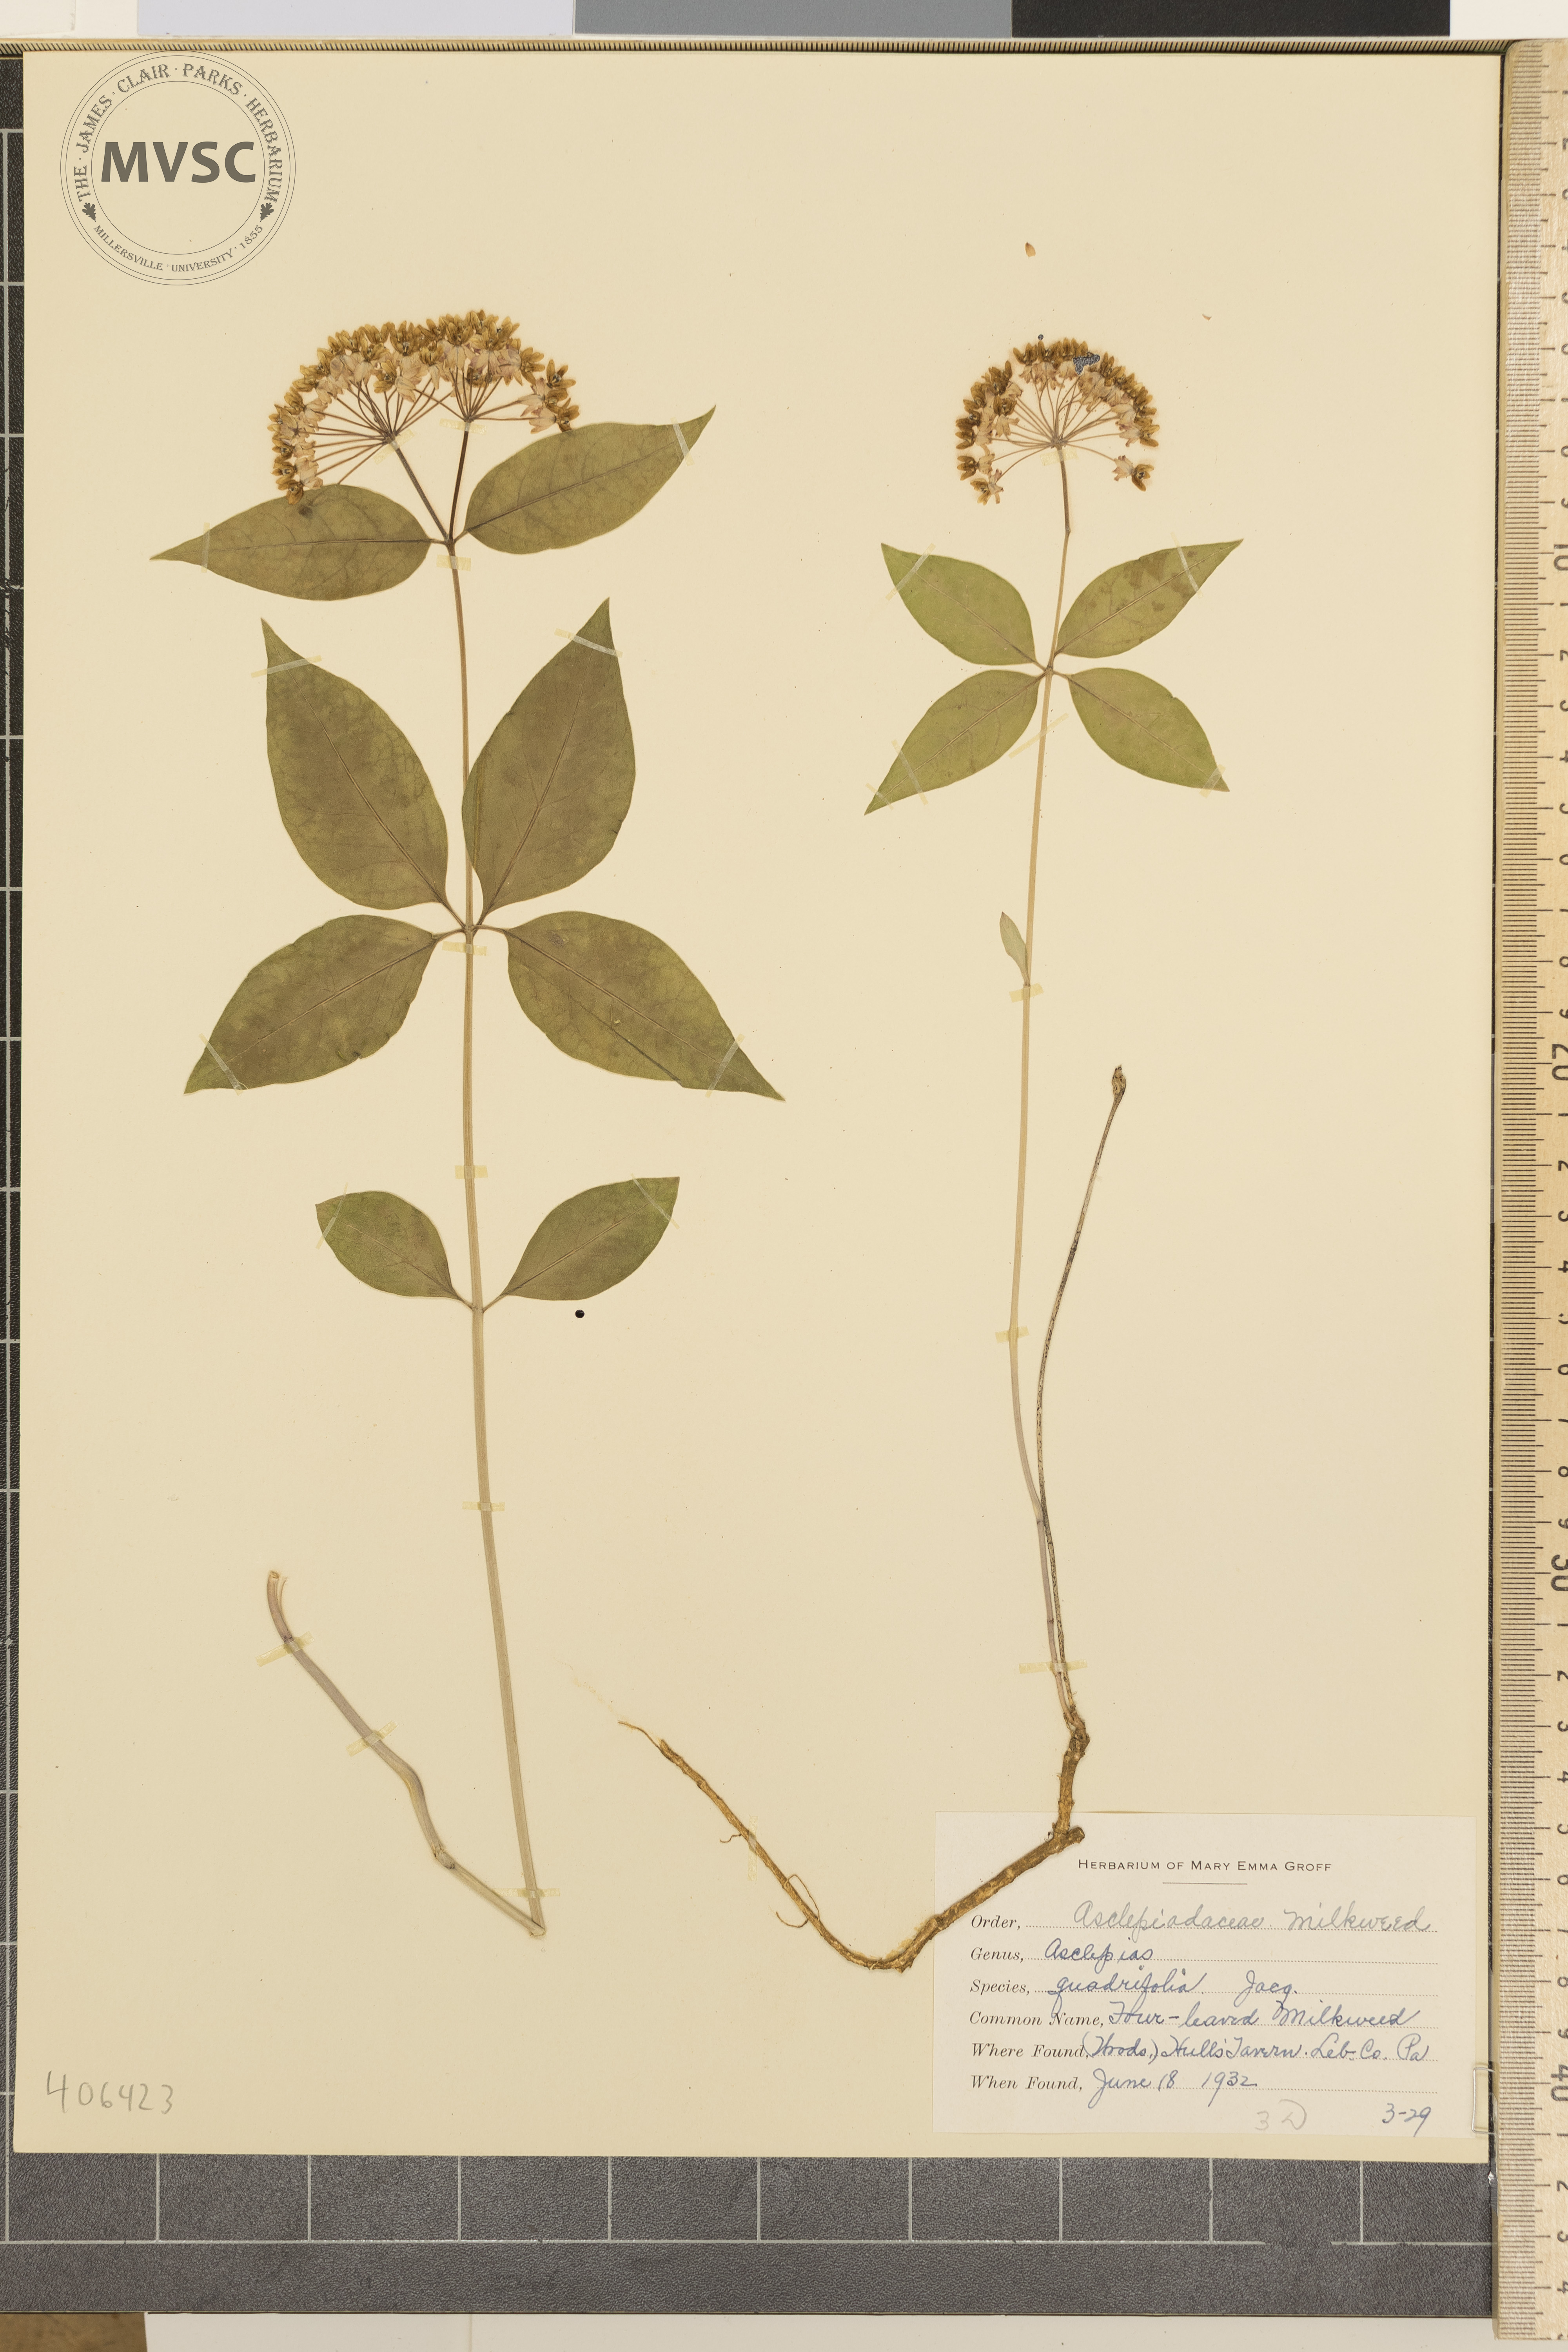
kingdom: Plantae
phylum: Tracheophyta
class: Magnoliopsida
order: Gentianales
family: Apocynaceae
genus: Asclepias
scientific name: Asclepias quadrifolia
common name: Four-leaved Milkweed
